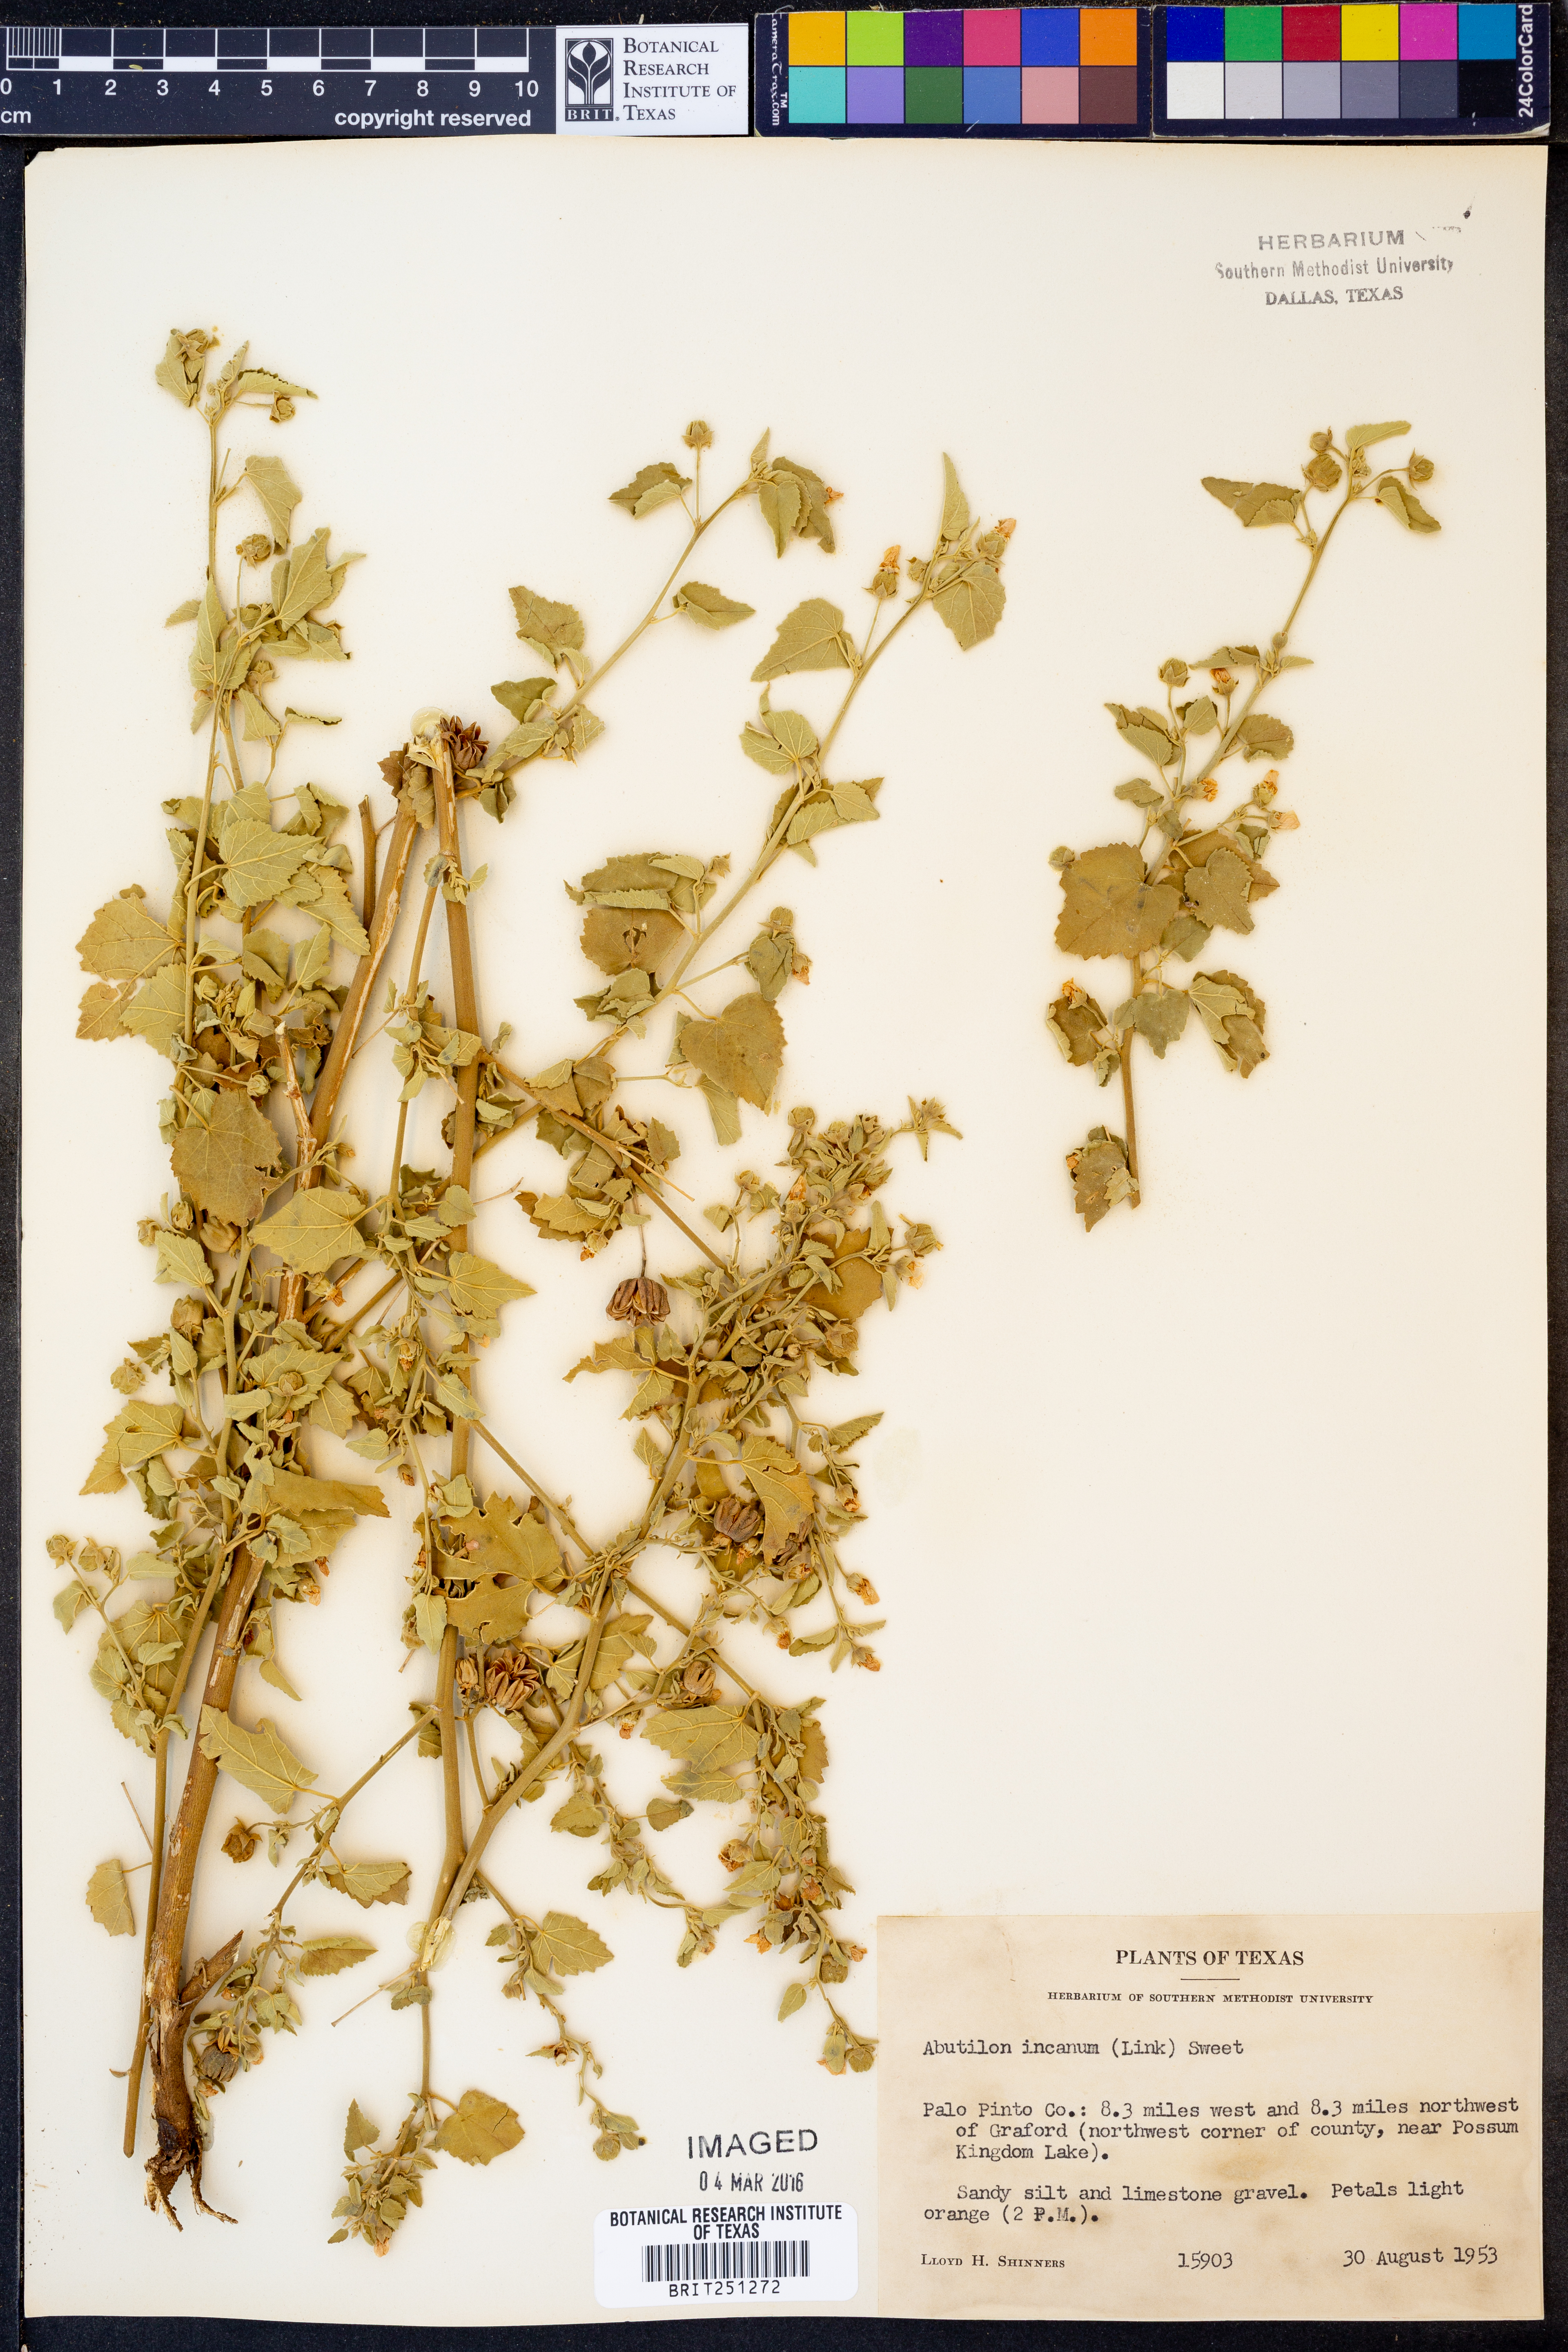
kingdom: Plantae
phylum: Tracheophyta
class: Magnoliopsida
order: Malvales
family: Malvaceae
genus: Abutilon
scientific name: Abutilon incanum
